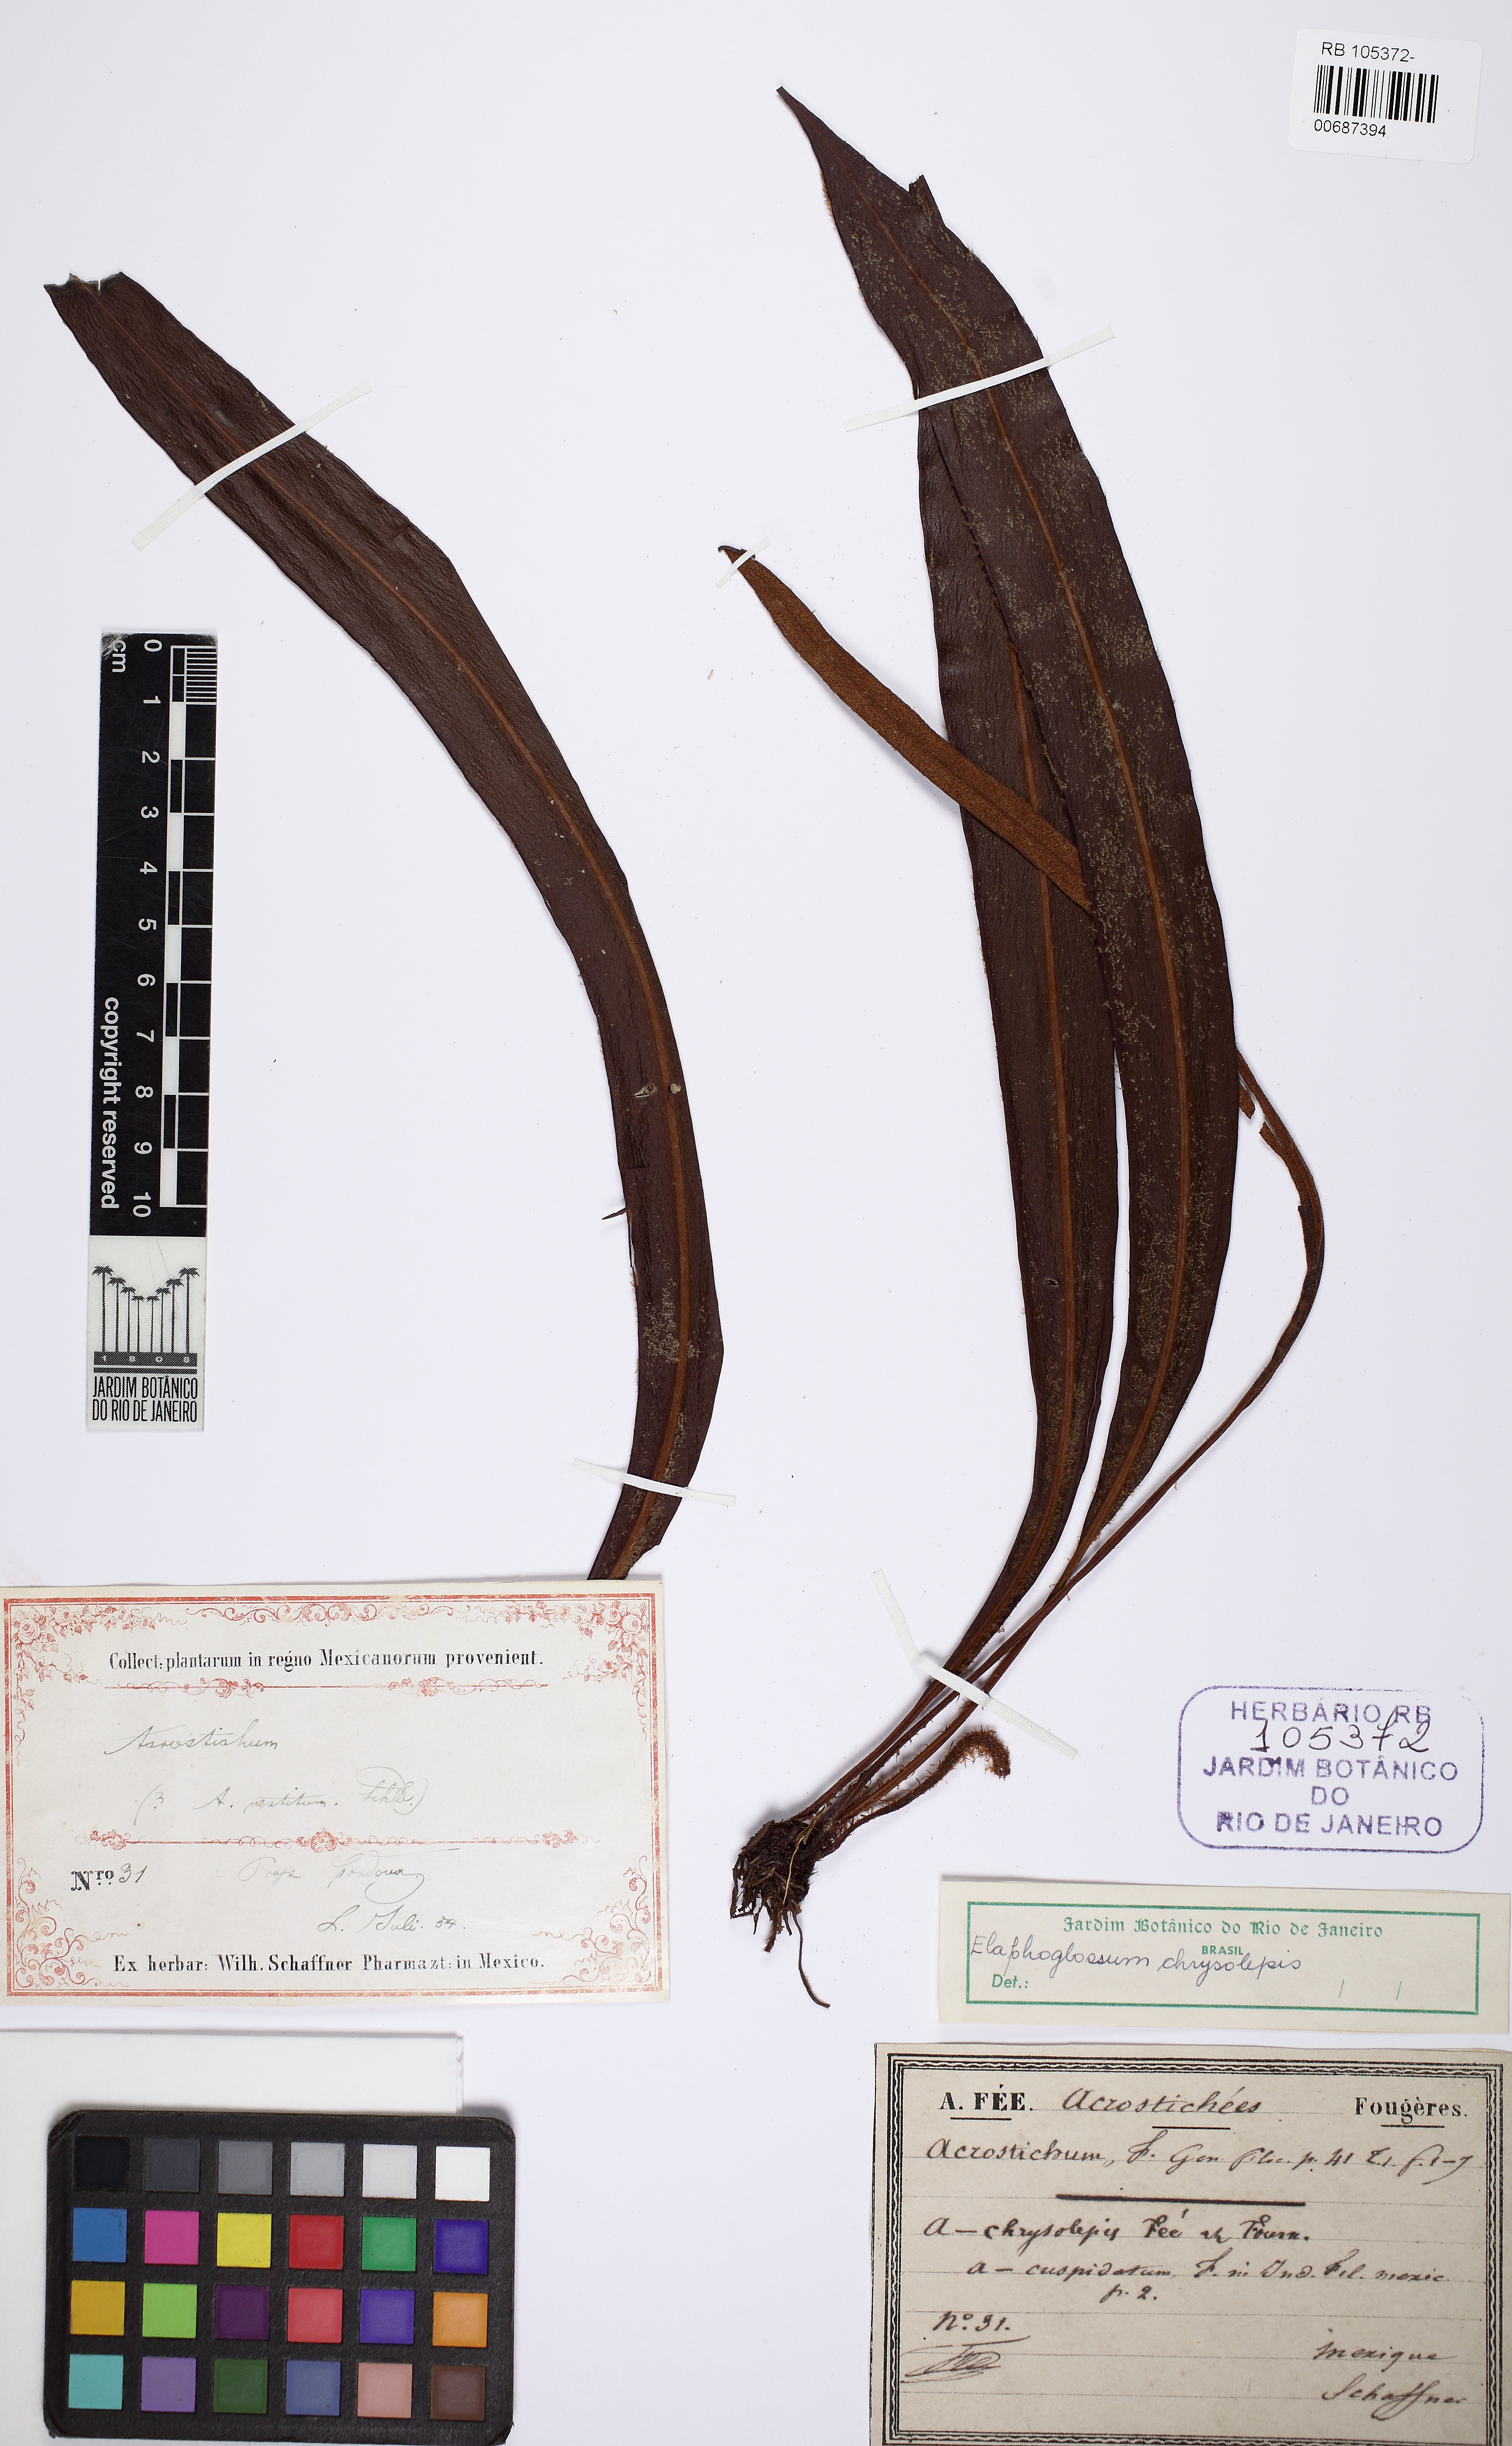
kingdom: Plantae
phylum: Tracheophyta
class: Polypodiopsida
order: Polypodiales
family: Dryopteridaceae
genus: Elaphoglossum
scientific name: Elaphoglossum chrysolepis
